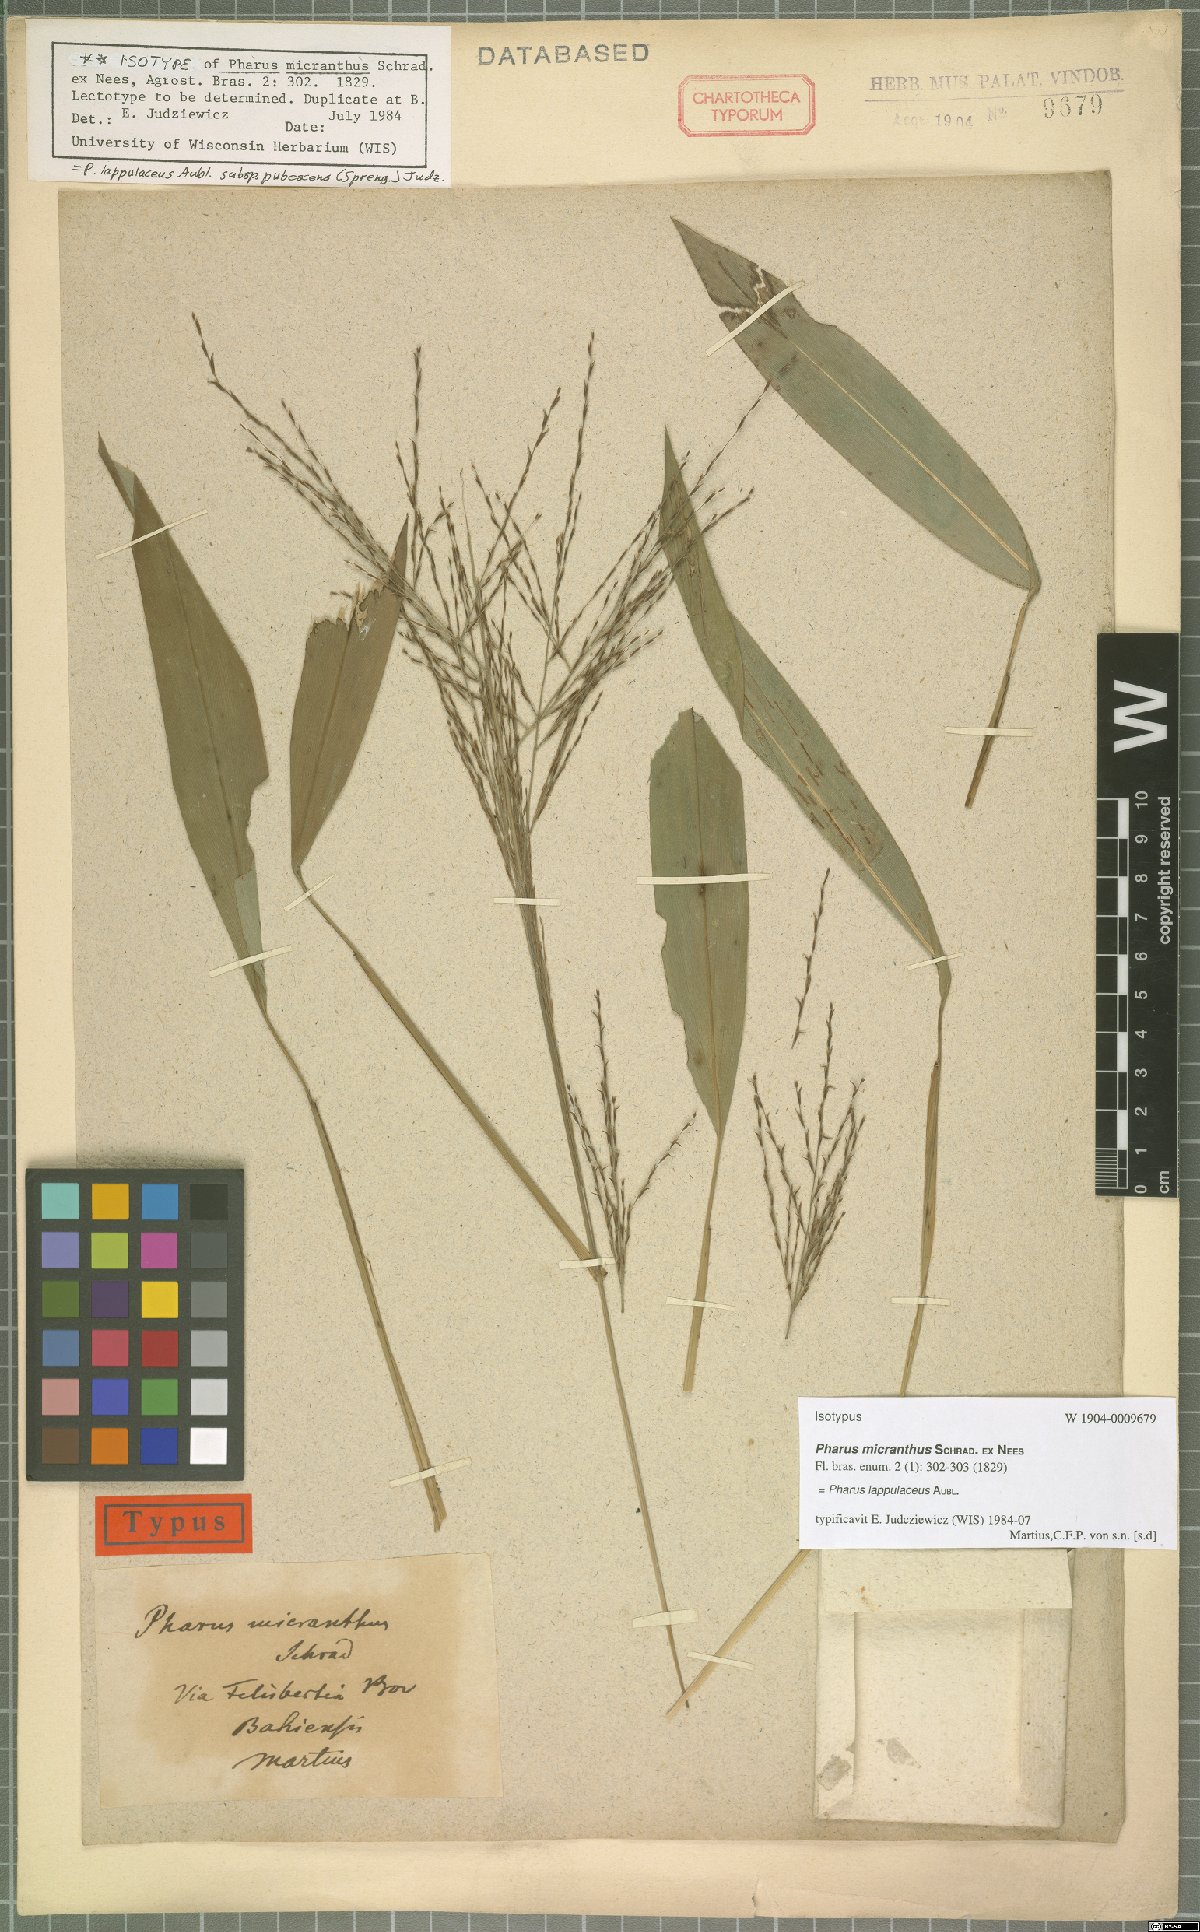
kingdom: Plantae
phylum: Tracheophyta
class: Liliopsida
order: Poales
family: Poaceae
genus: Pharus
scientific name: Pharus lappulaceus
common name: Creeping leafstalk grass
